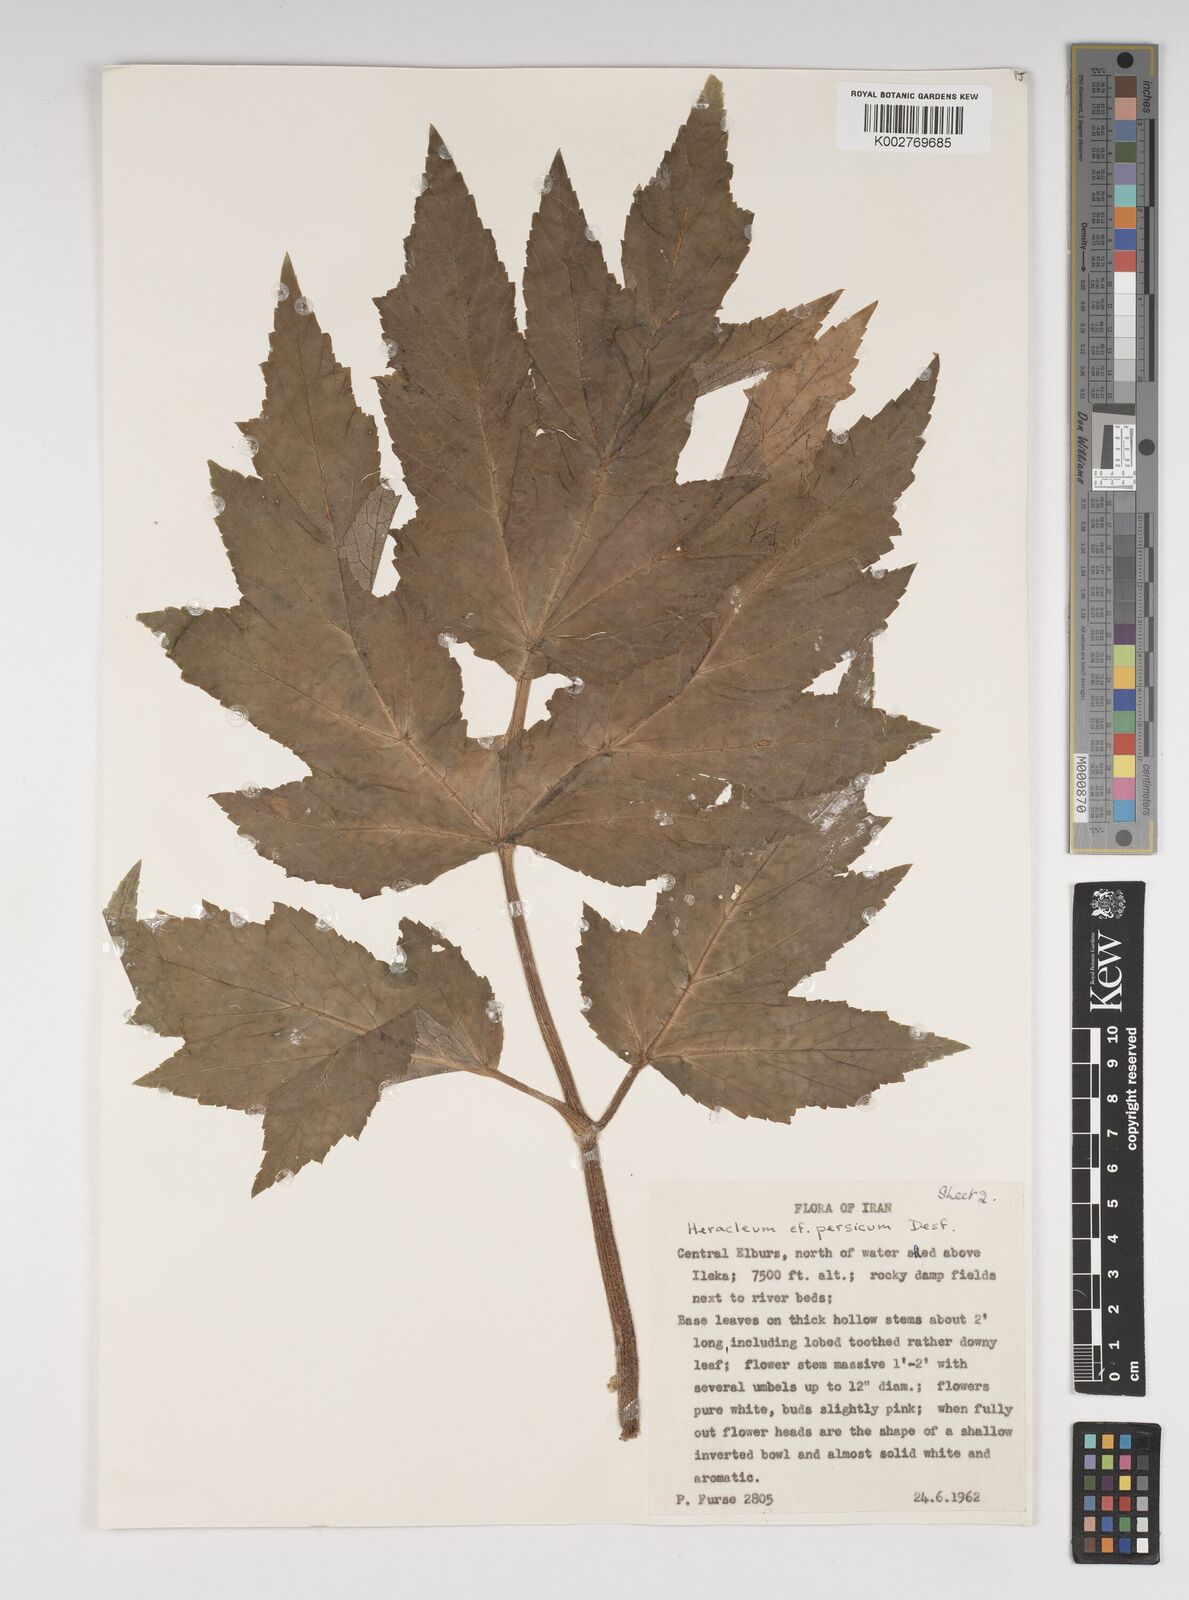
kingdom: Plantae
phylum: Tracheophyta
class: Magnoliopsida
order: Apiales
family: Apiaceae
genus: Heracleum
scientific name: Heracleum persicum
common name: Persian hogweed
